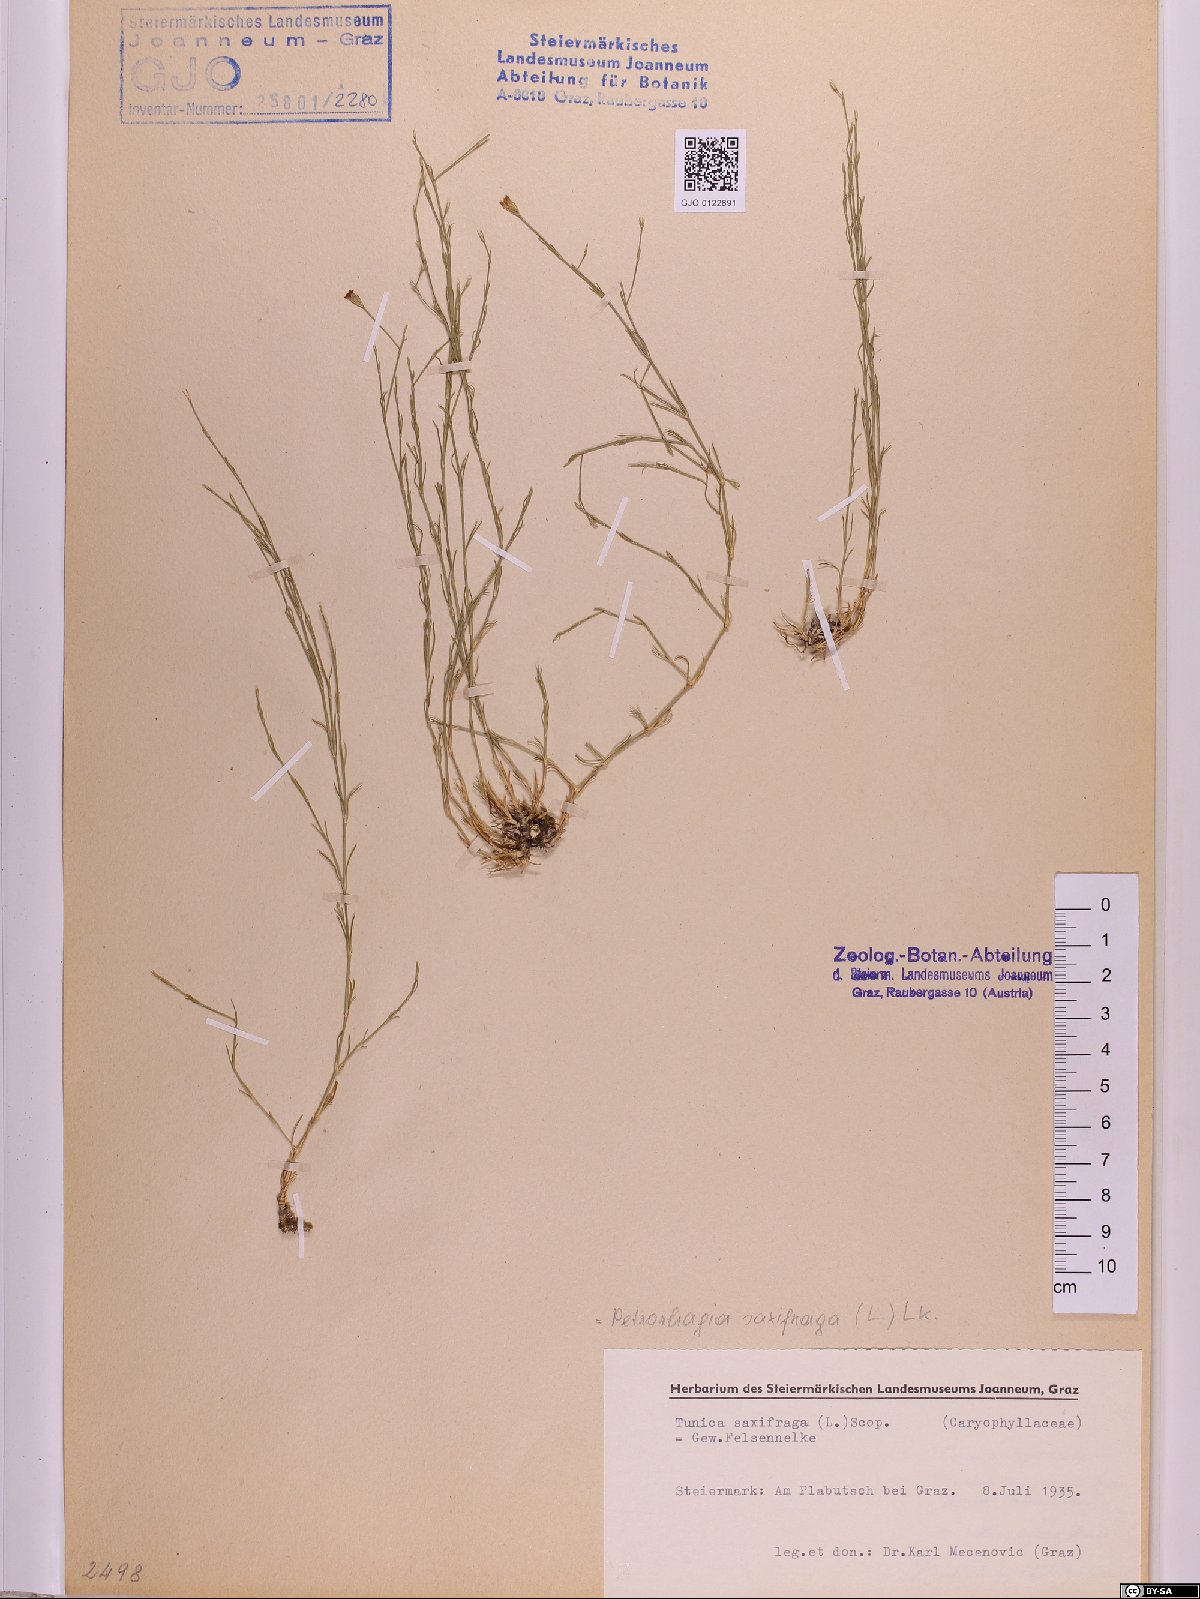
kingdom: Plantae
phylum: Tracheophyta
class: Magnoliopsida
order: Caryophyllales
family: Caryophyllaceae
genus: Petrorhagia
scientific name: Petrorhagia saxifraga
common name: Tunicflower
